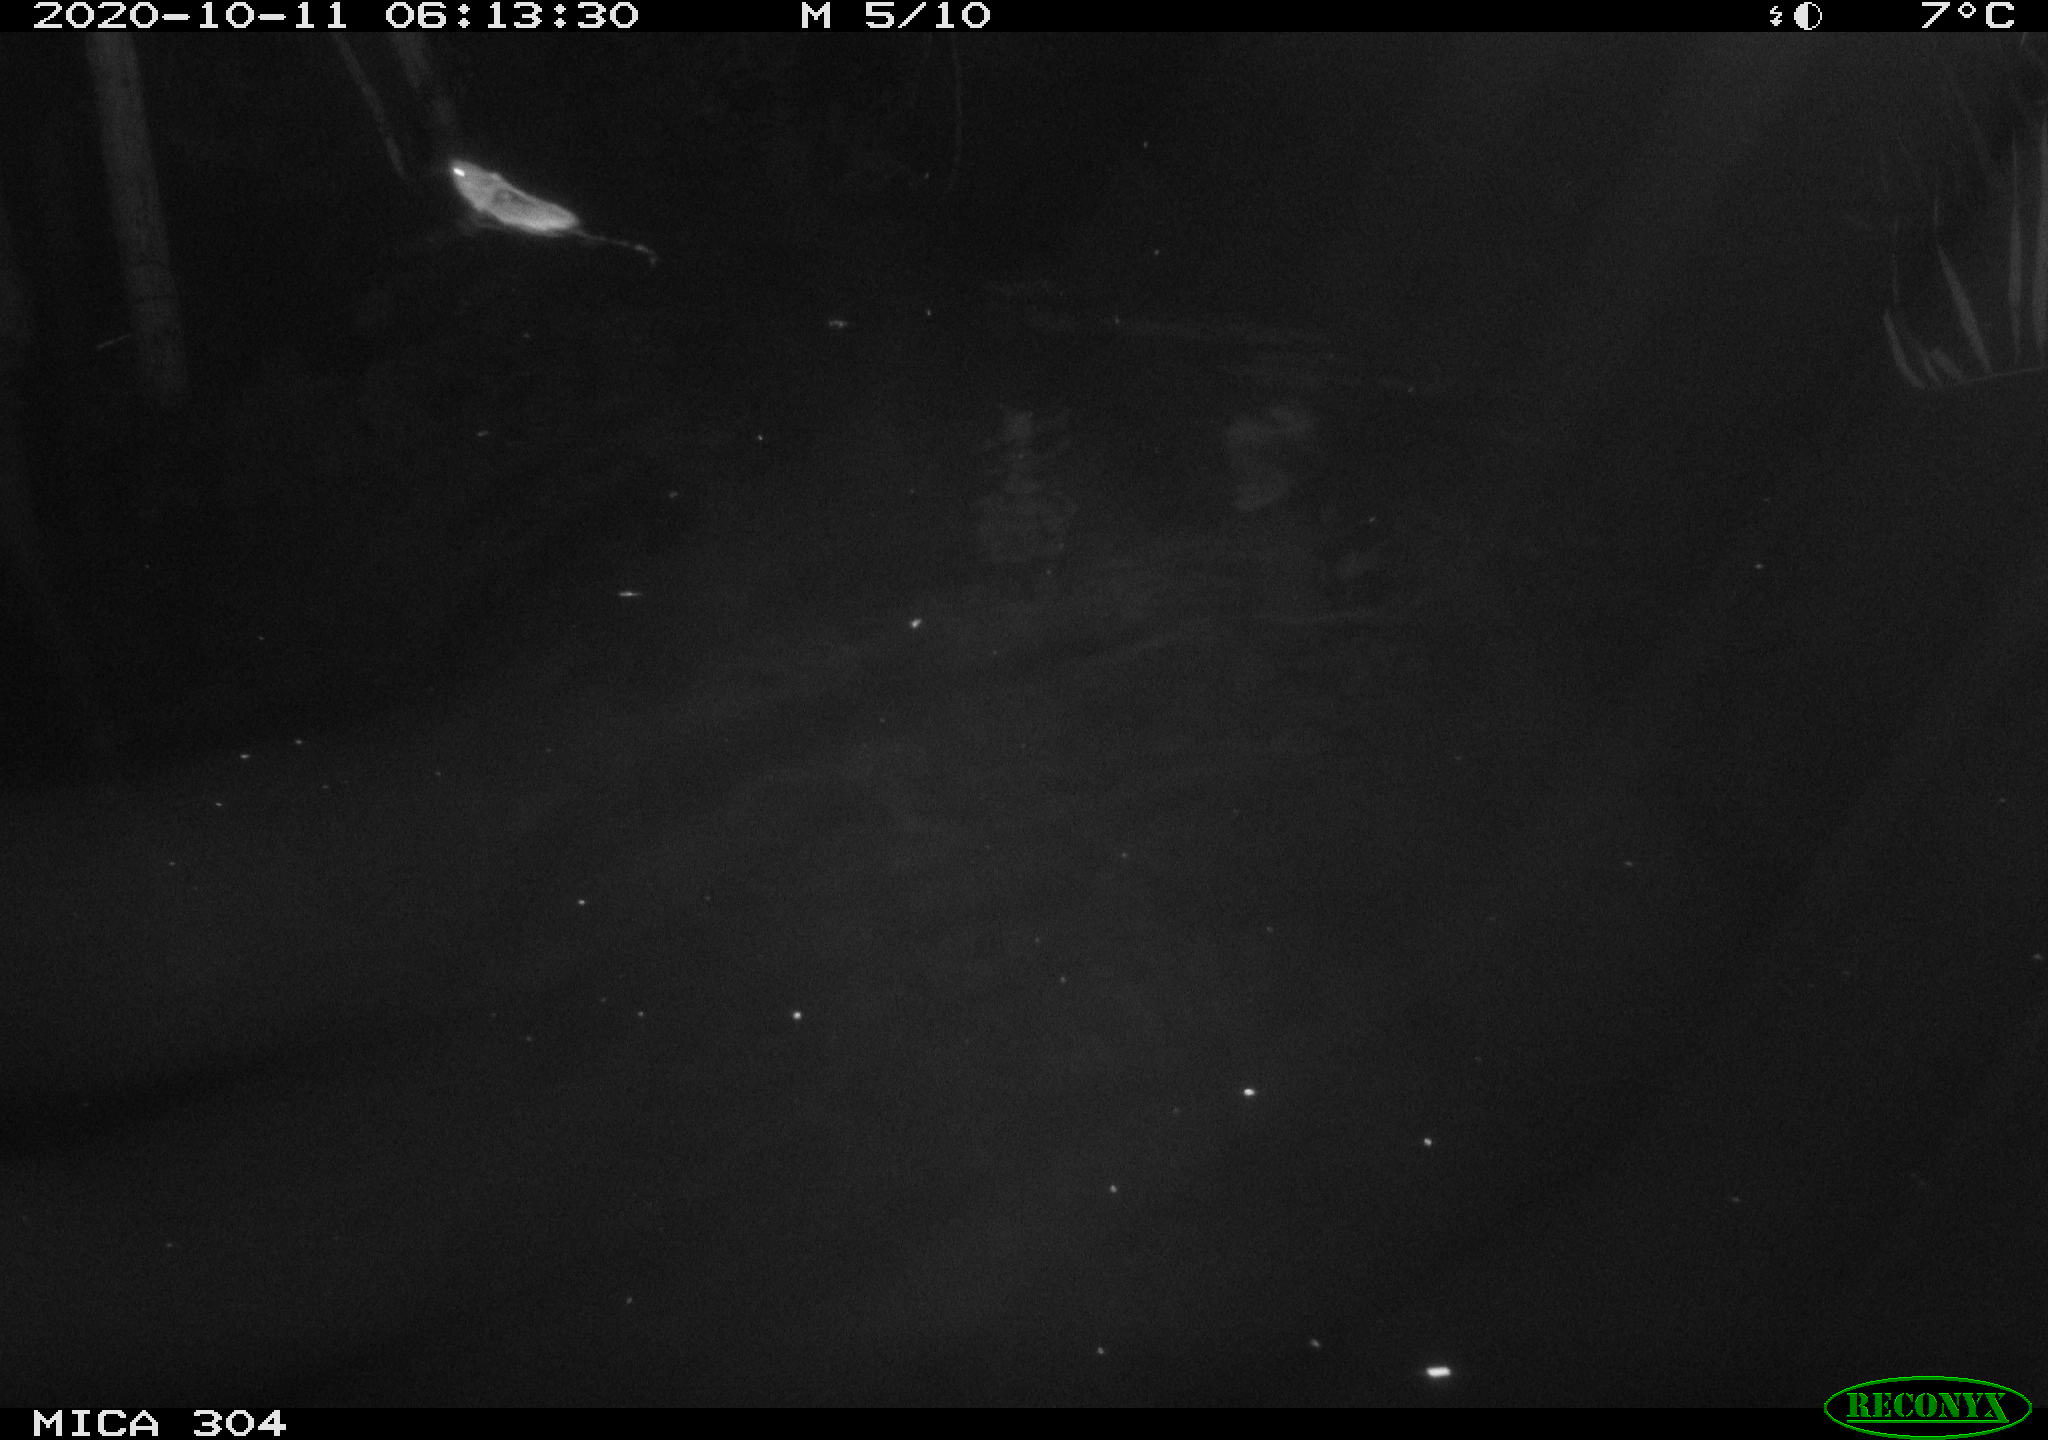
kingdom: Animalia
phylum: Chordata
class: Mammalia
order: Rodentia
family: Muridae
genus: Rattus
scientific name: Rattus norvegicus
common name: Brown rat
